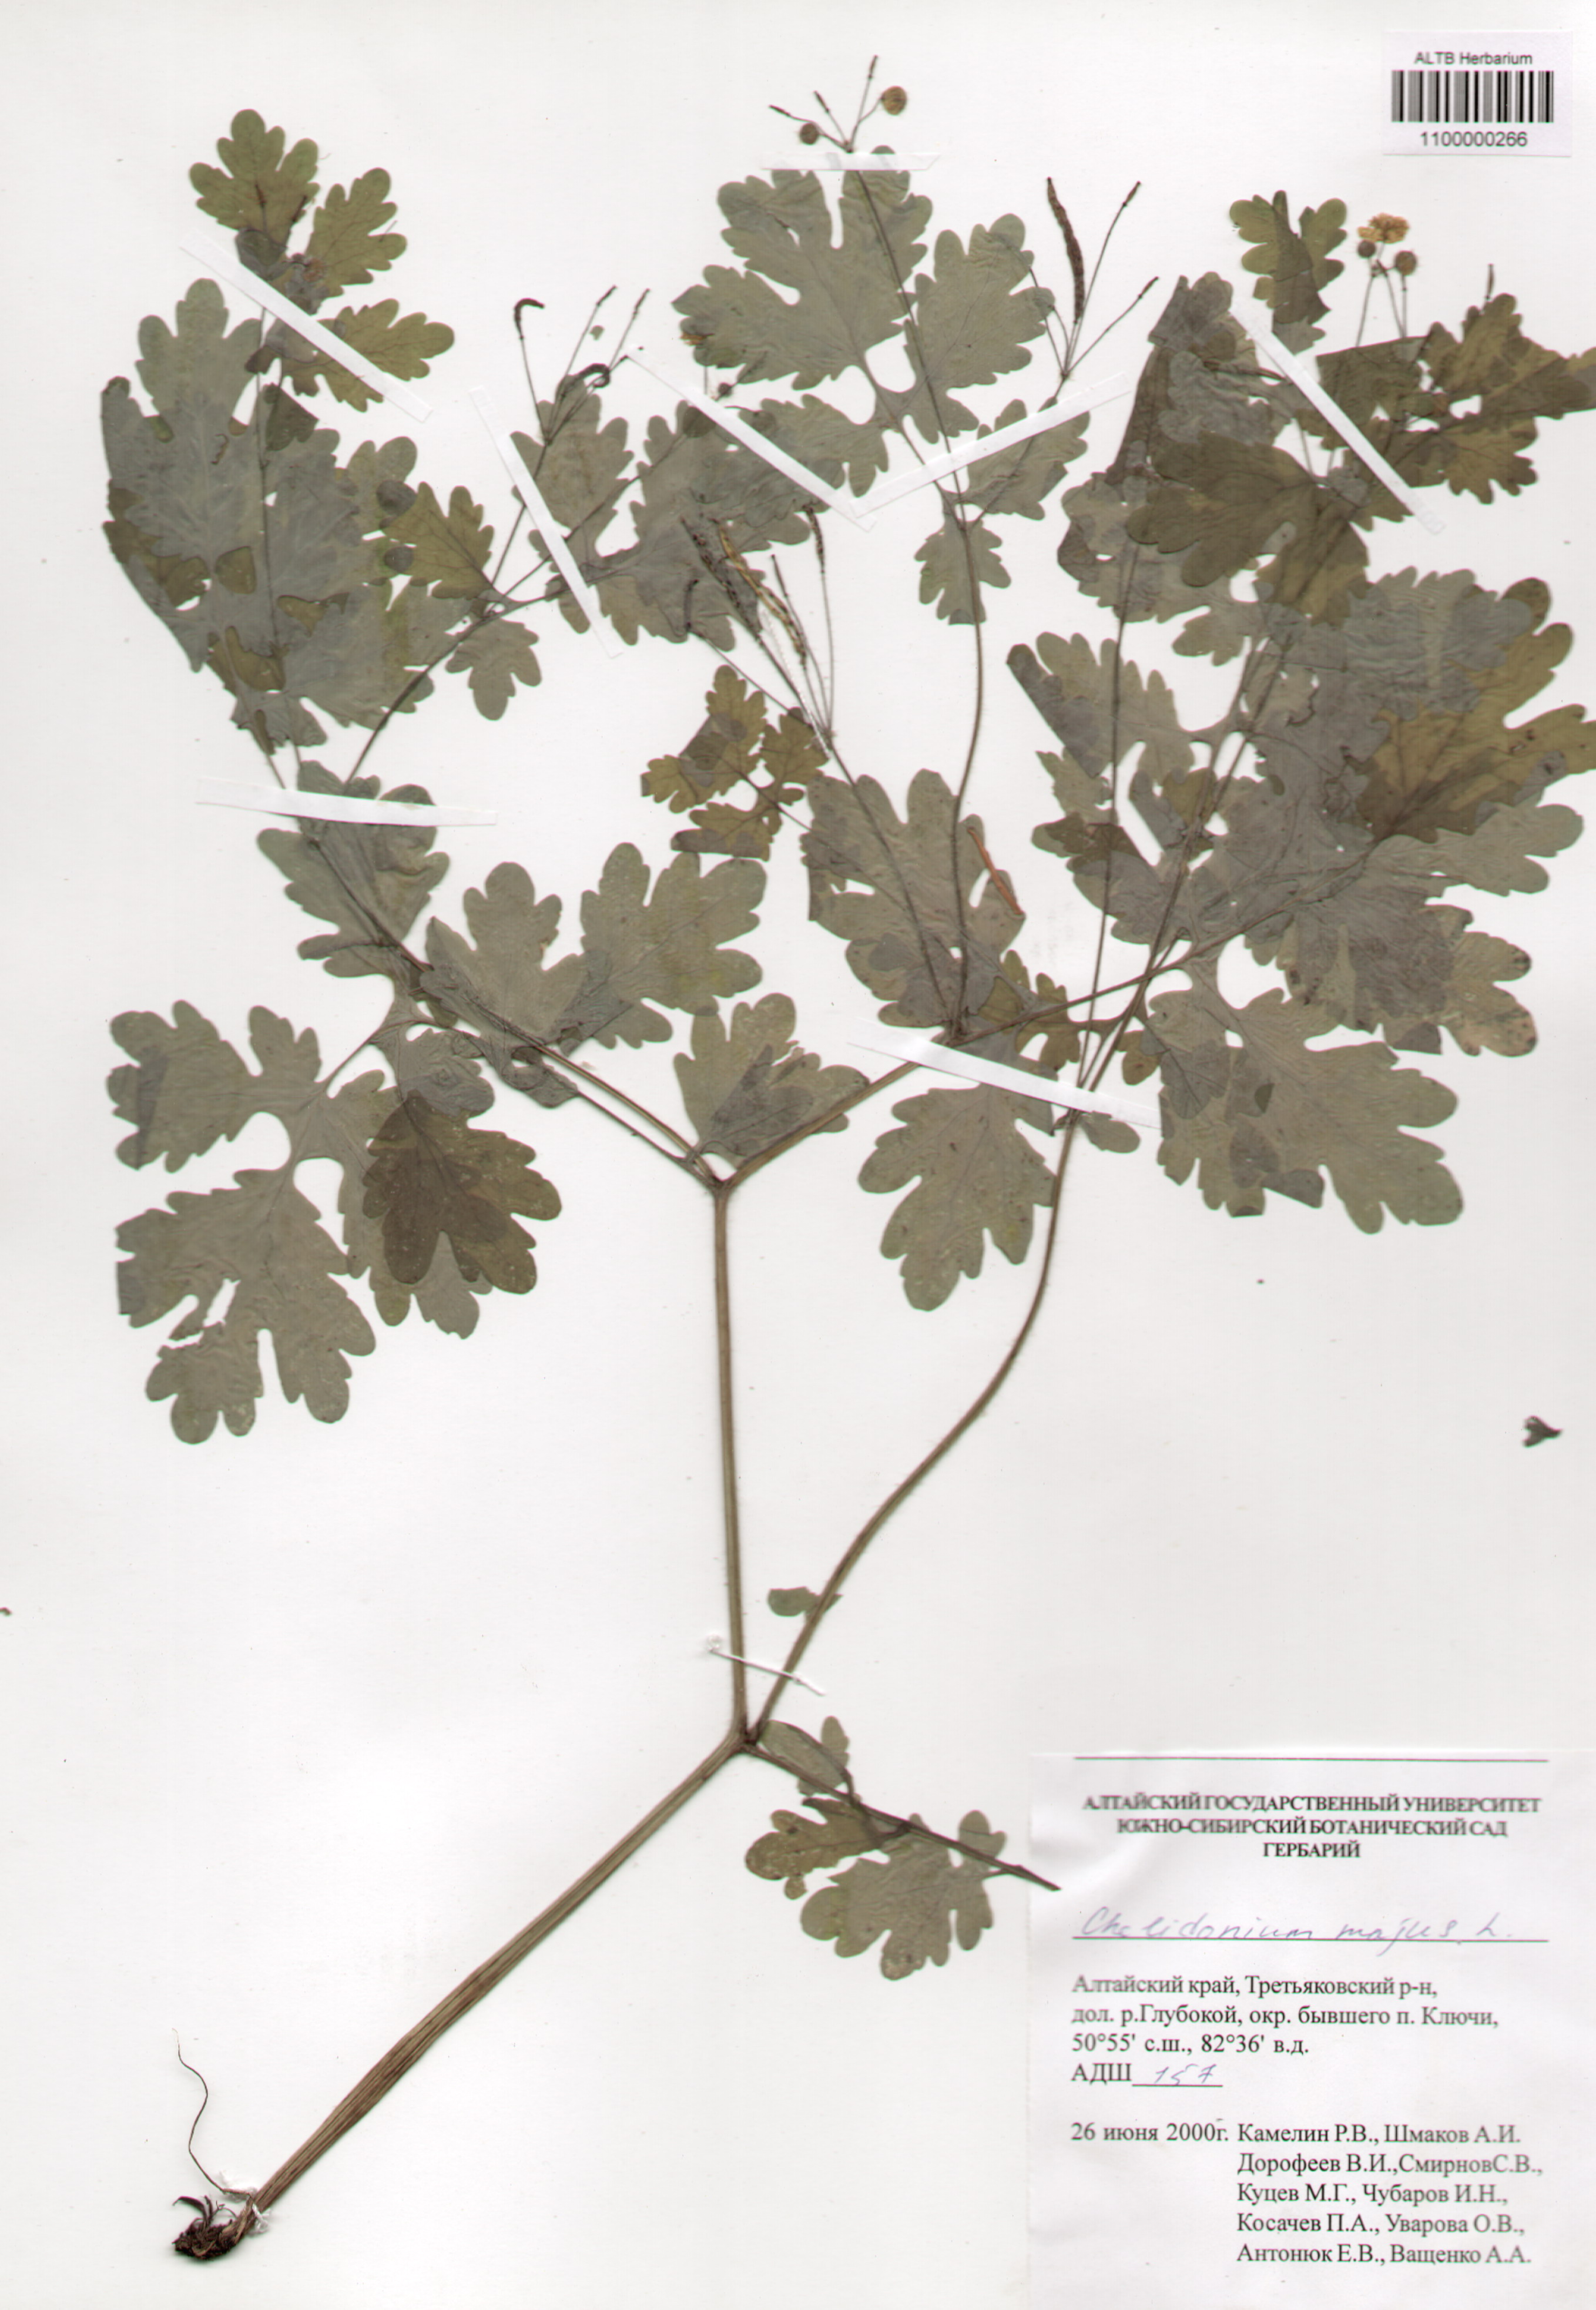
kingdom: Plantae
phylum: Tracheophyta
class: Magnoliopsida
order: Ranunculales
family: Papaveraceae
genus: Chelidonium
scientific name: Chelidonium majus
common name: Greater celandine
